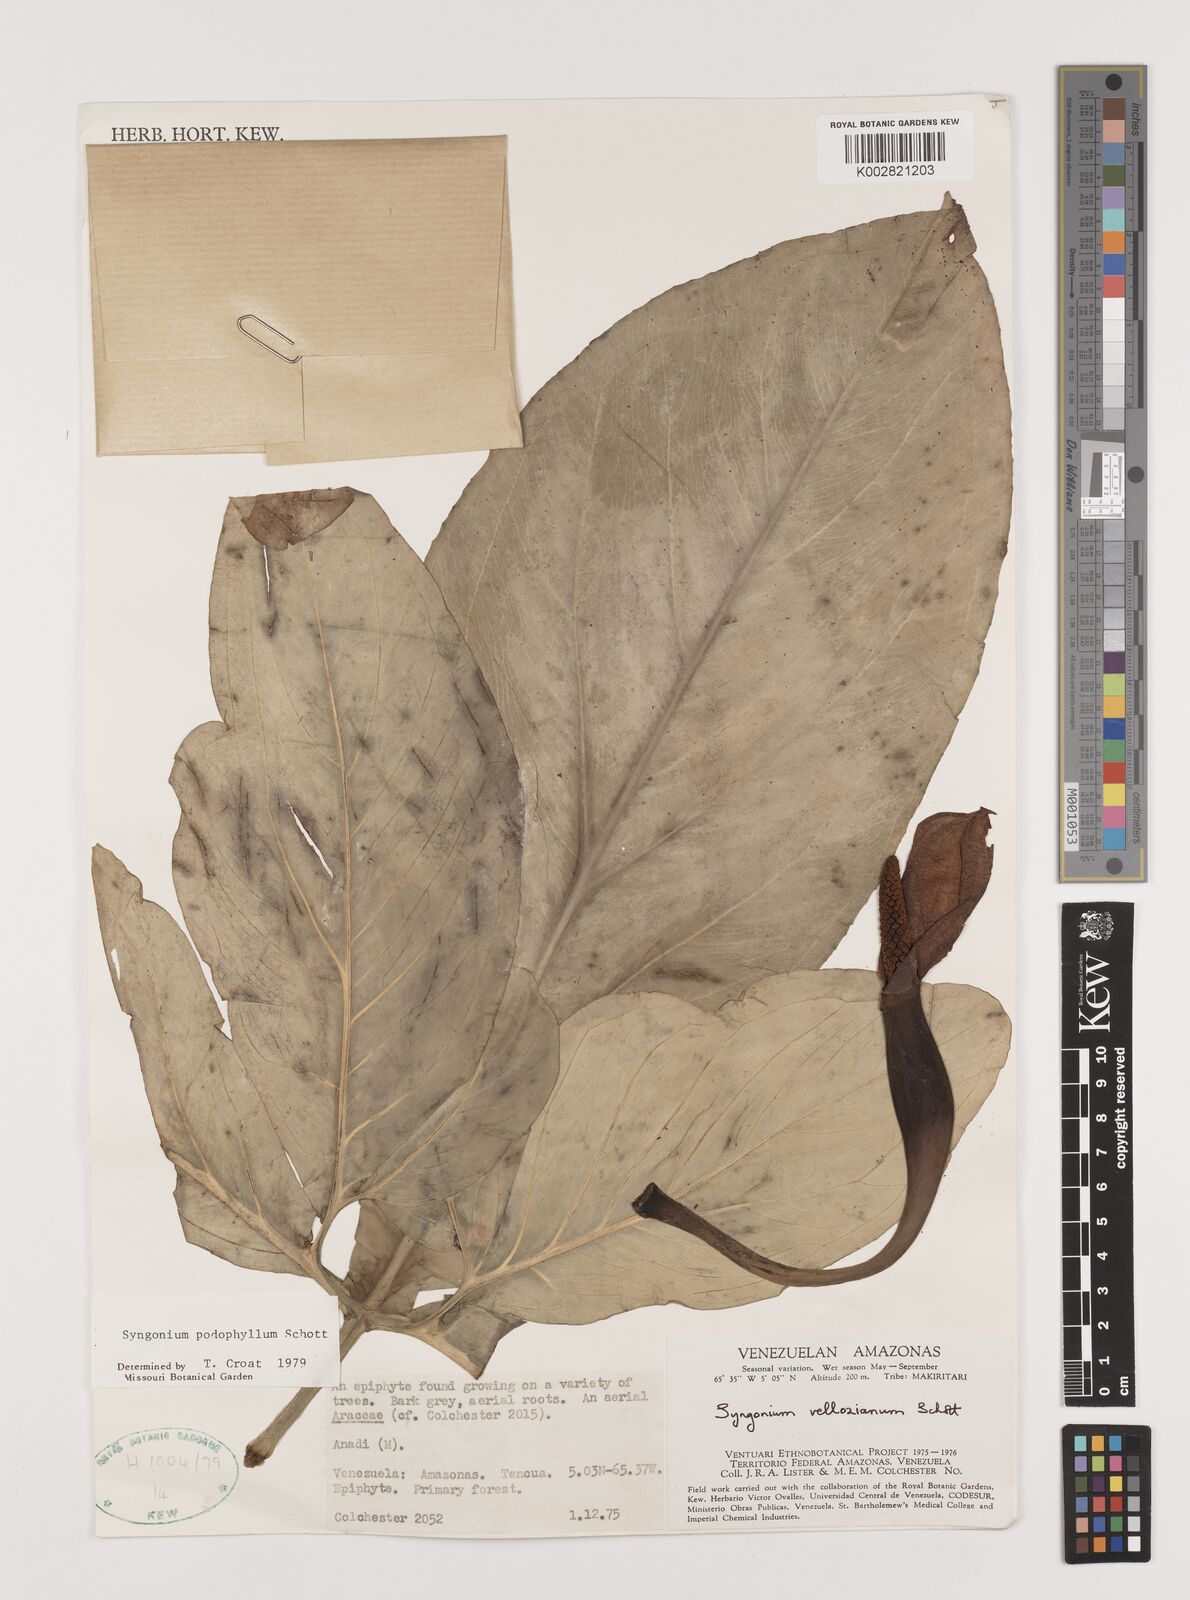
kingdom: Plantae
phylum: Tracheophyta
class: Liliopsida
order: Alismatales
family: Araceae
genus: Syngonium
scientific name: Syngonium podophyllum
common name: American evergreen
